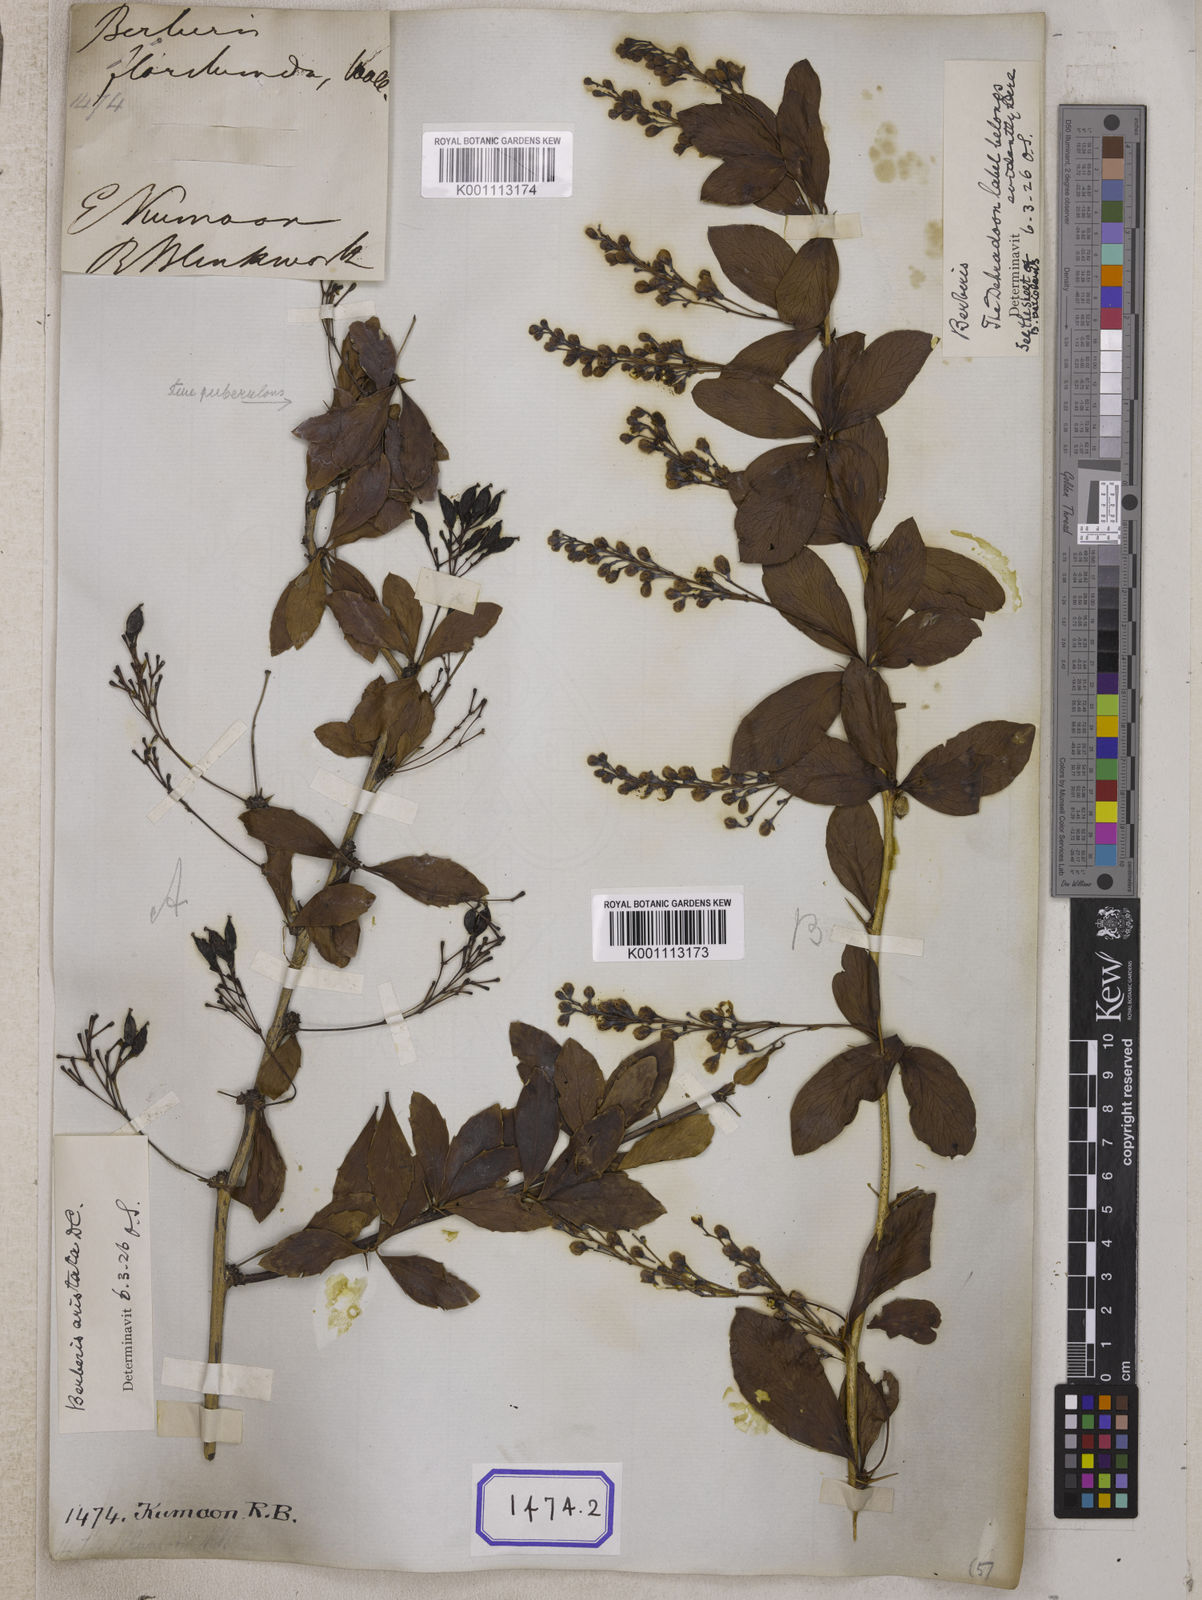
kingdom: Plantae
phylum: Tracheophyta
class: Magnoliopsida
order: Ranunculales
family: Berberidaceae
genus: Berberis
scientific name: Berberis aristata
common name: Indian barberry
